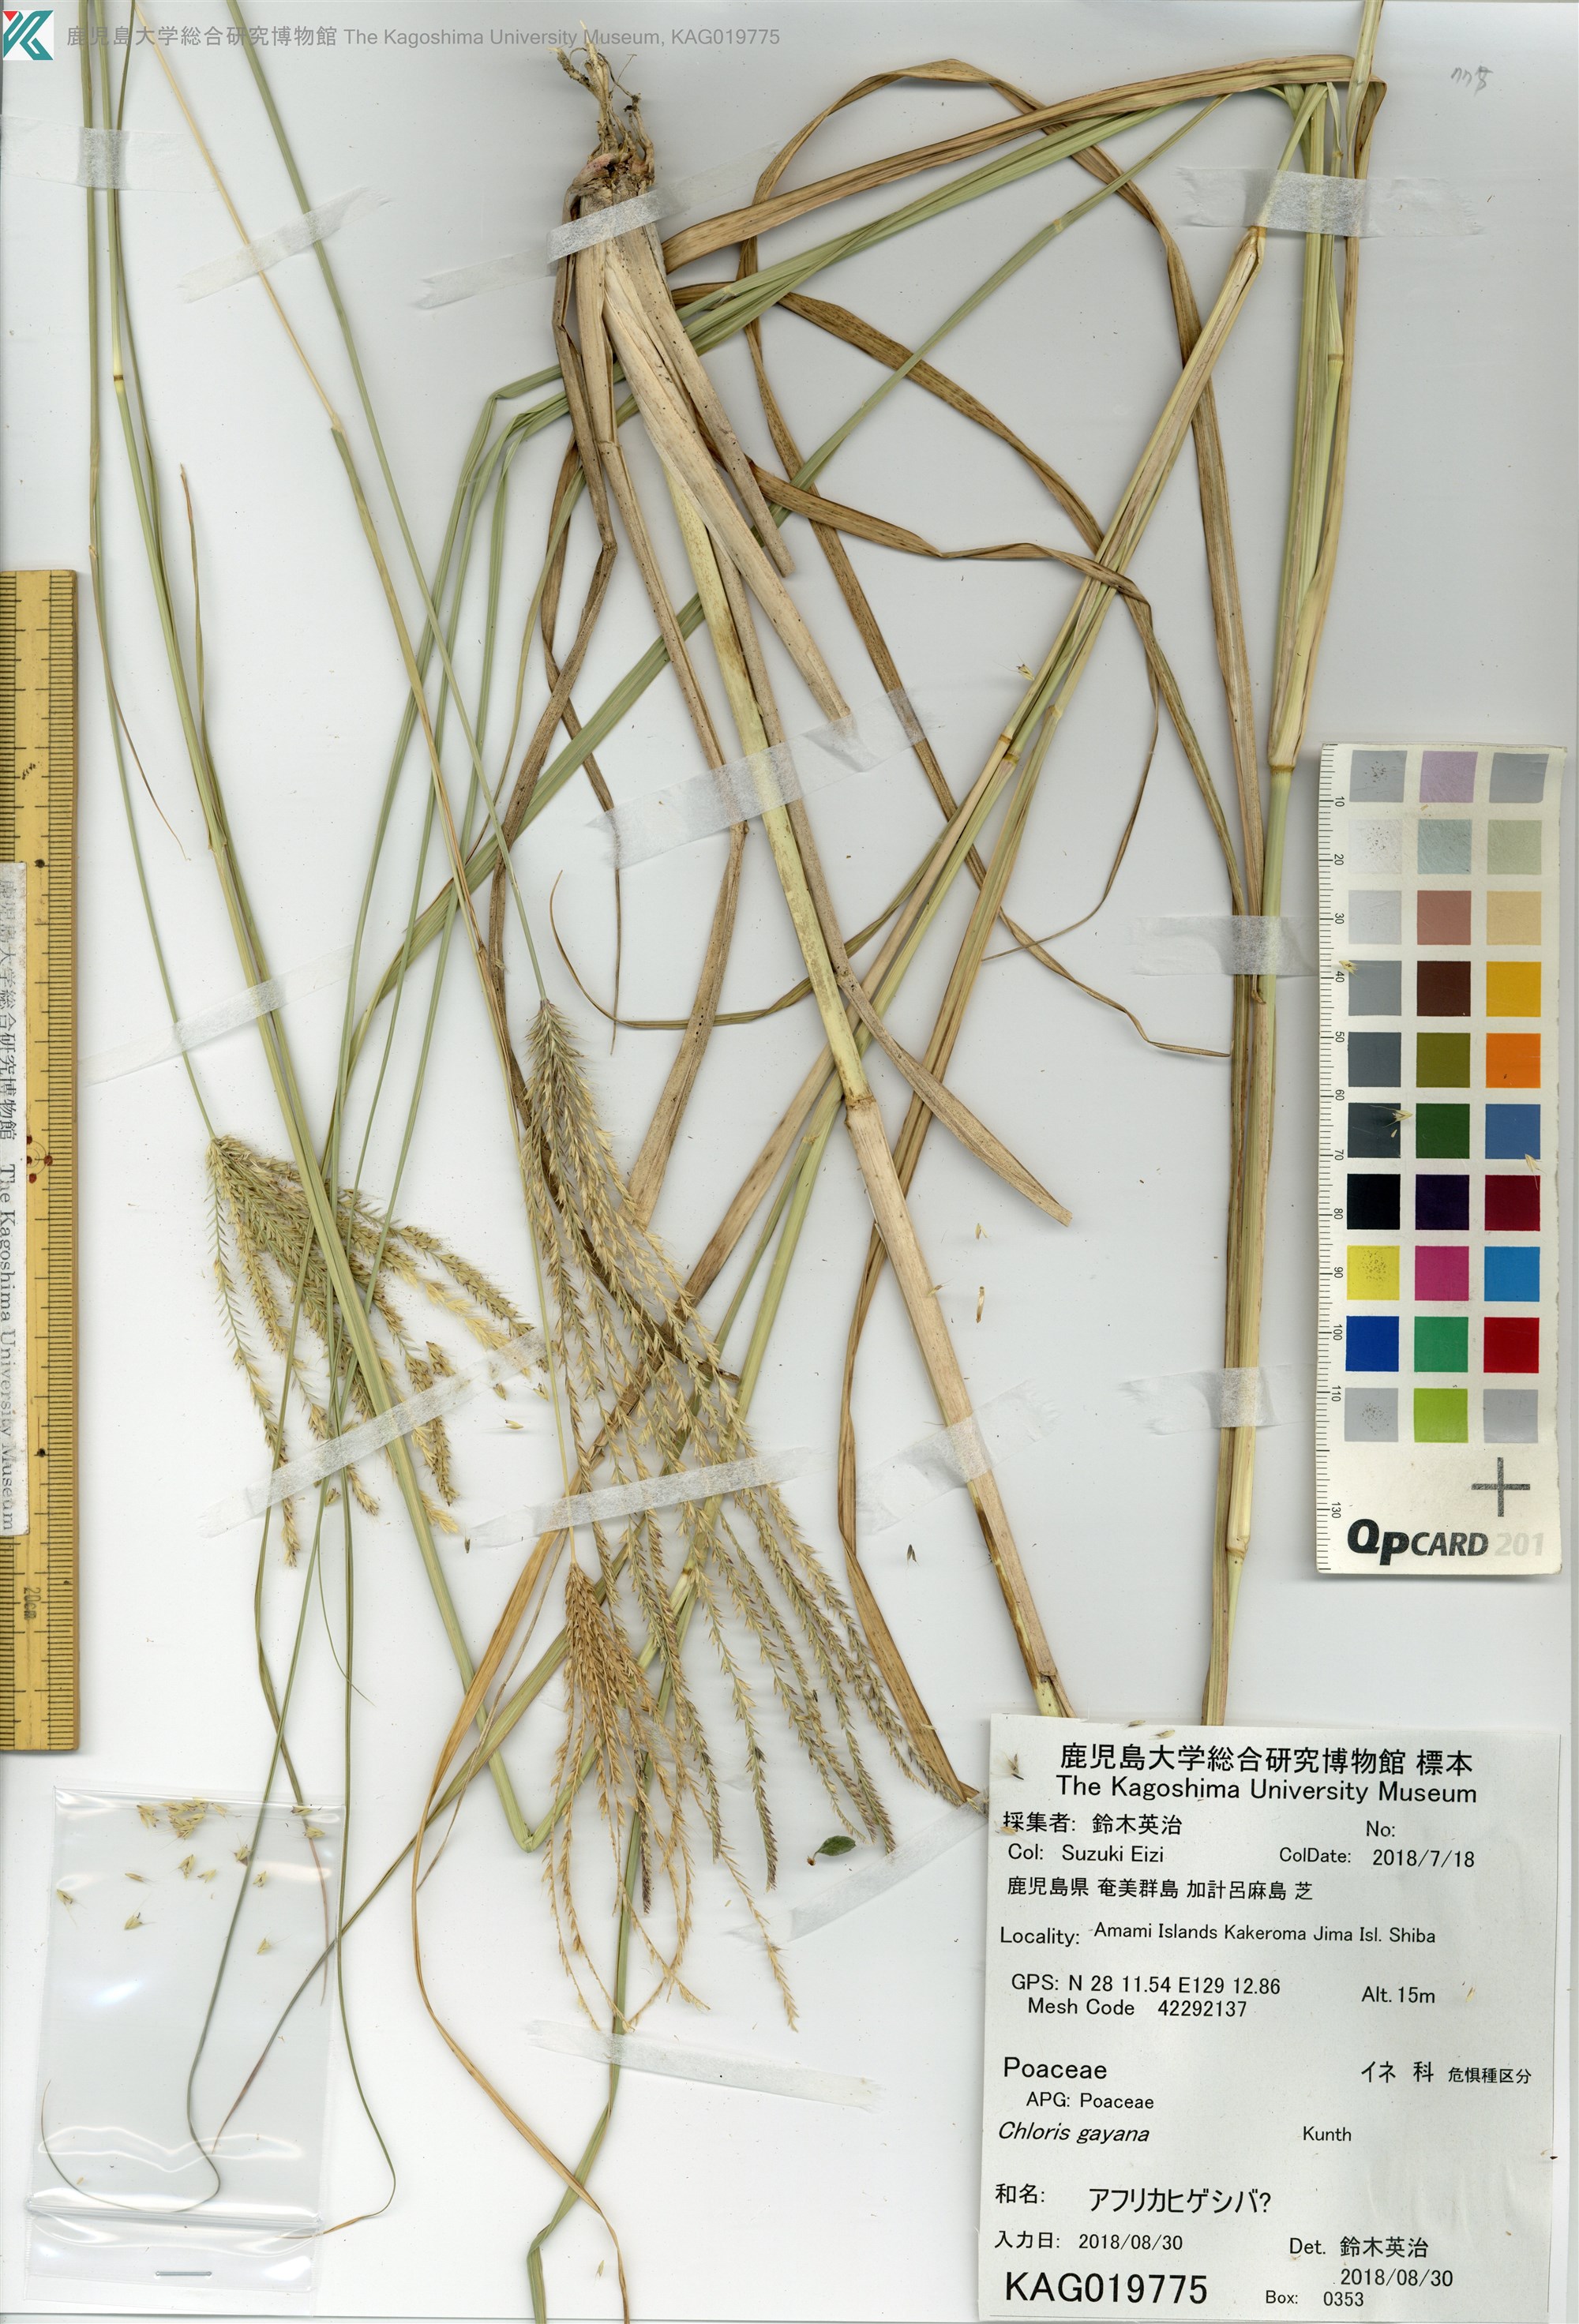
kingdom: Plantae
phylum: Tracheophyta
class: Liliopsida
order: Poales
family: Poaceae
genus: Chloris
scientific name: Chloris
